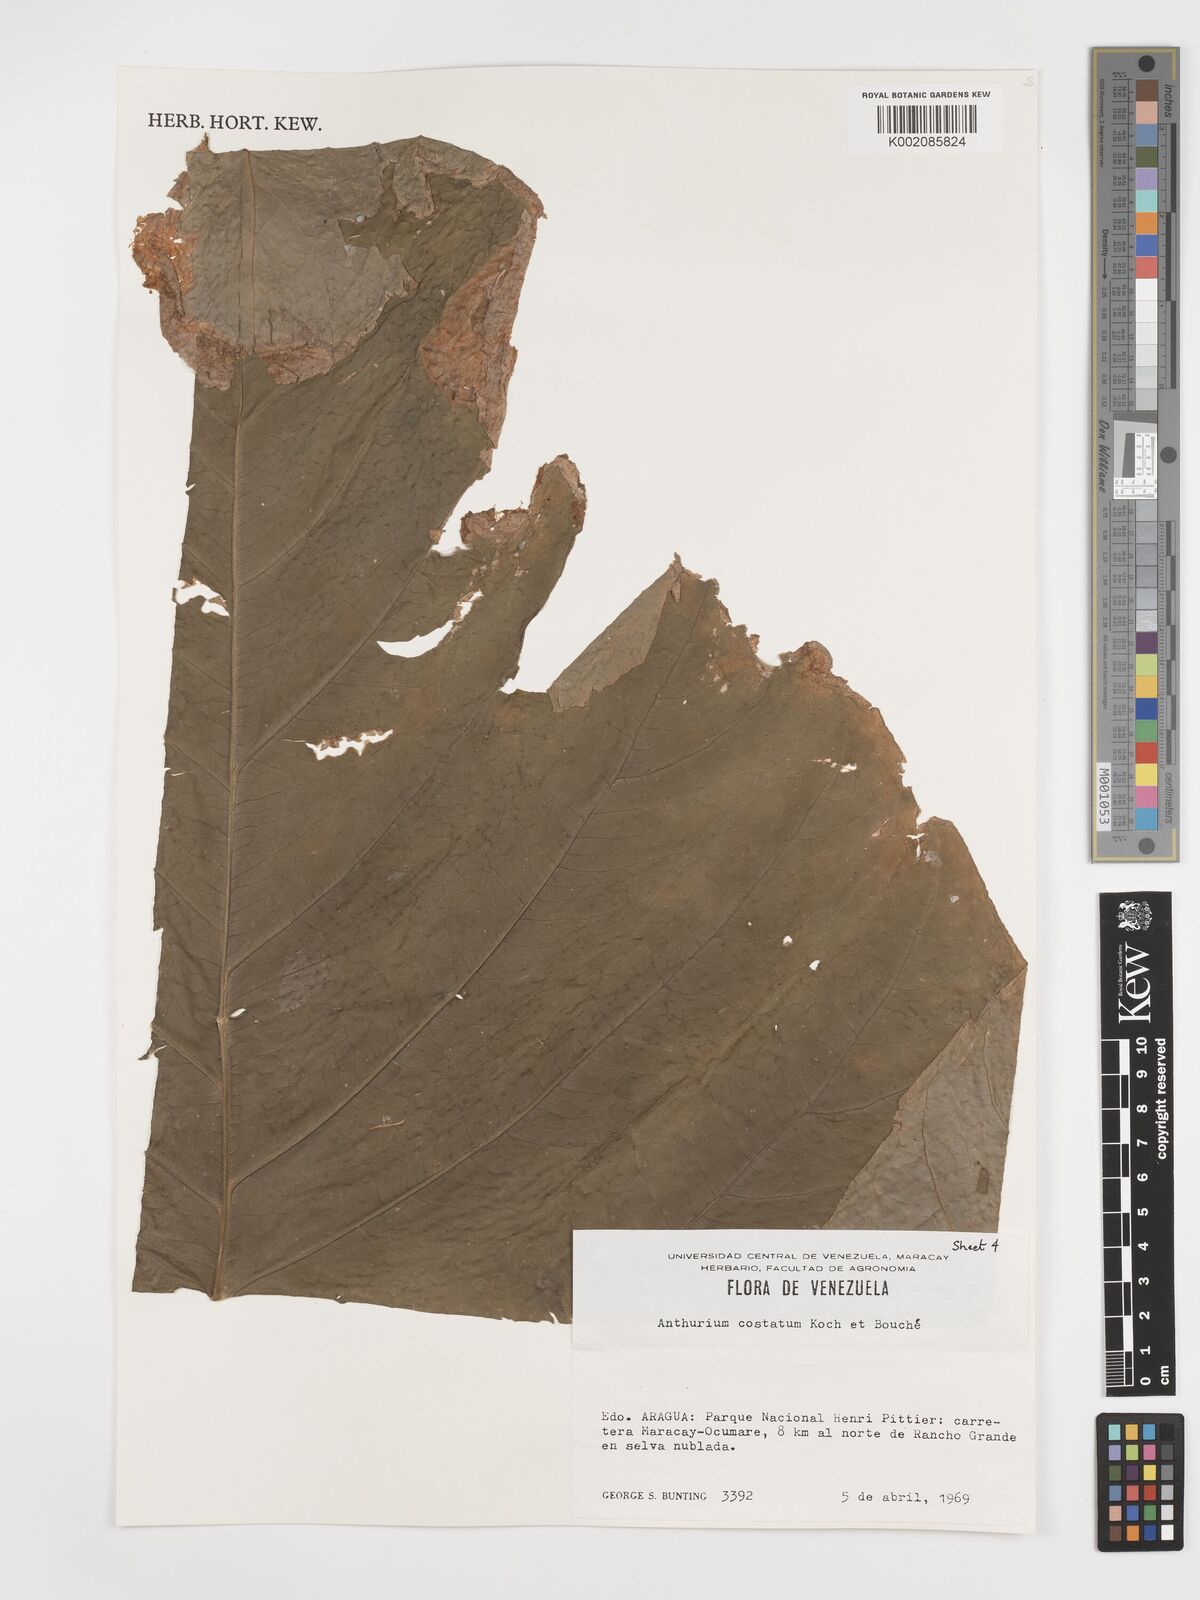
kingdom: Plantae
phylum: Tracheophyta
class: Liliopsida
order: Alismatales
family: Araceae
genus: Anthurium
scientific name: Anthurium macrophyllum
